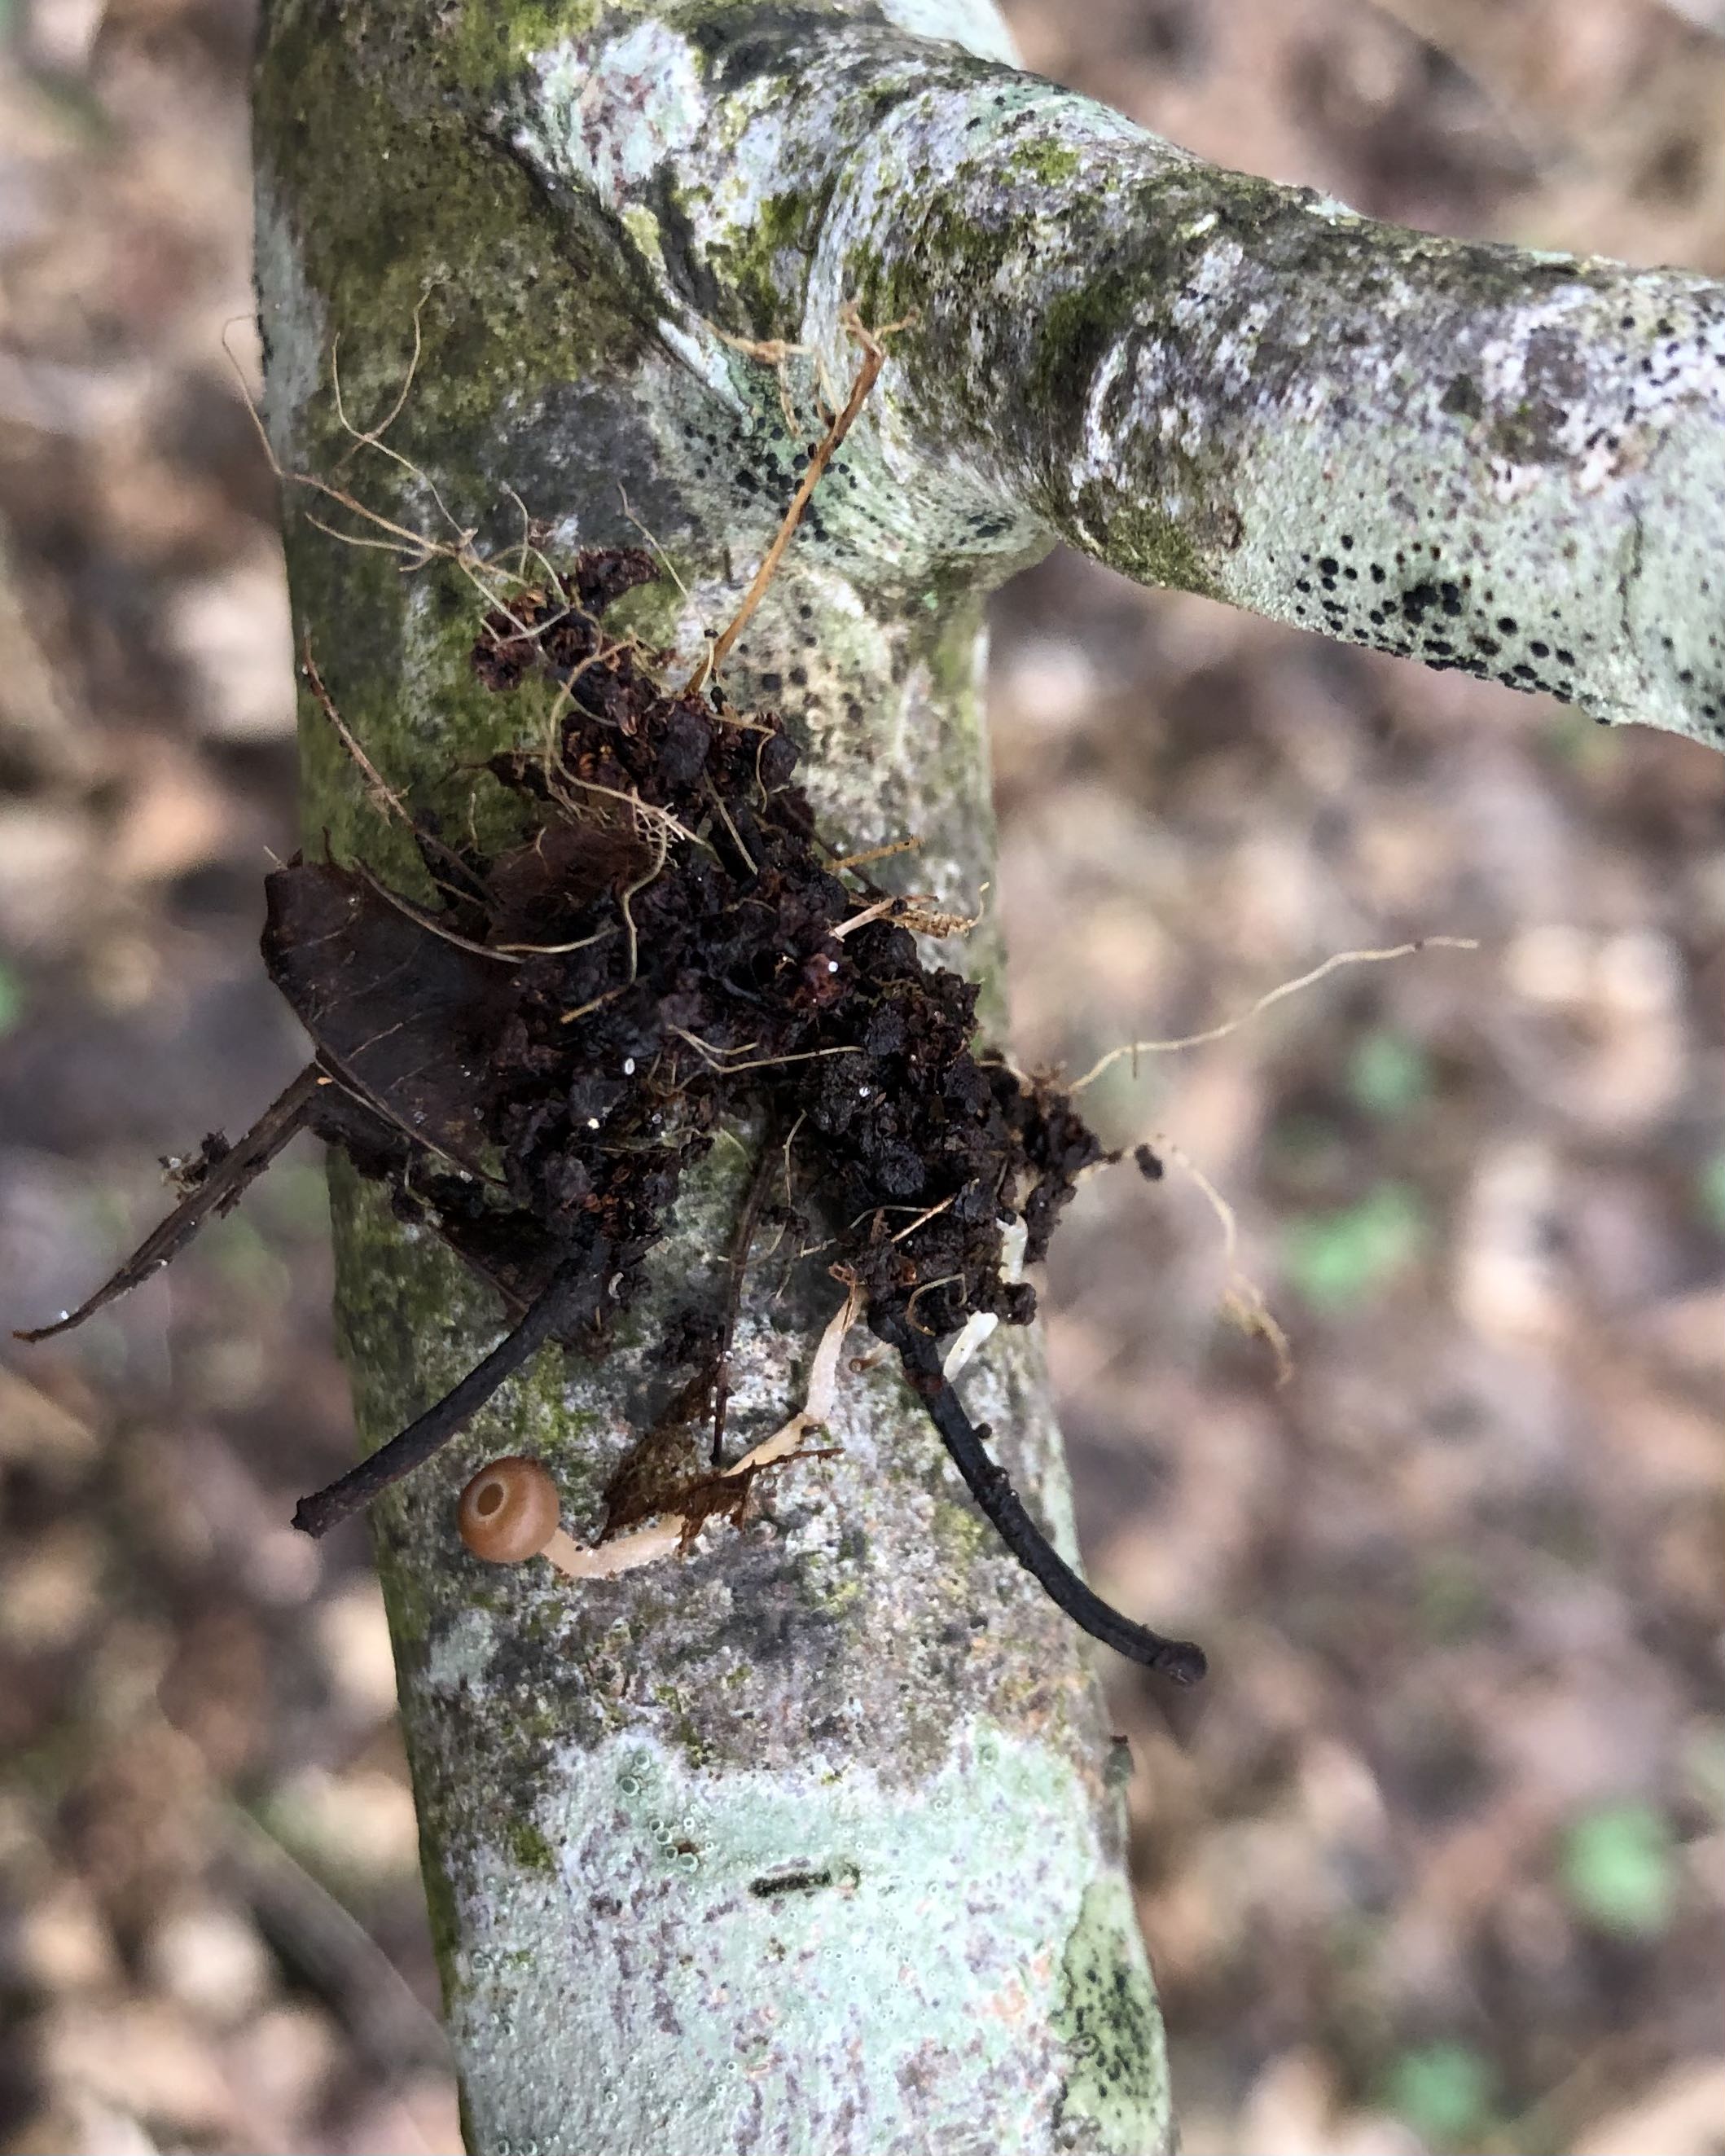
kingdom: Fungi
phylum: Ascomycota
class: Leotiomycetes
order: Helotiales
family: Sclerotiniaceae
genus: Ciboria
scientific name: Ciboria amentacea
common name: ellerakle-knoldskive
